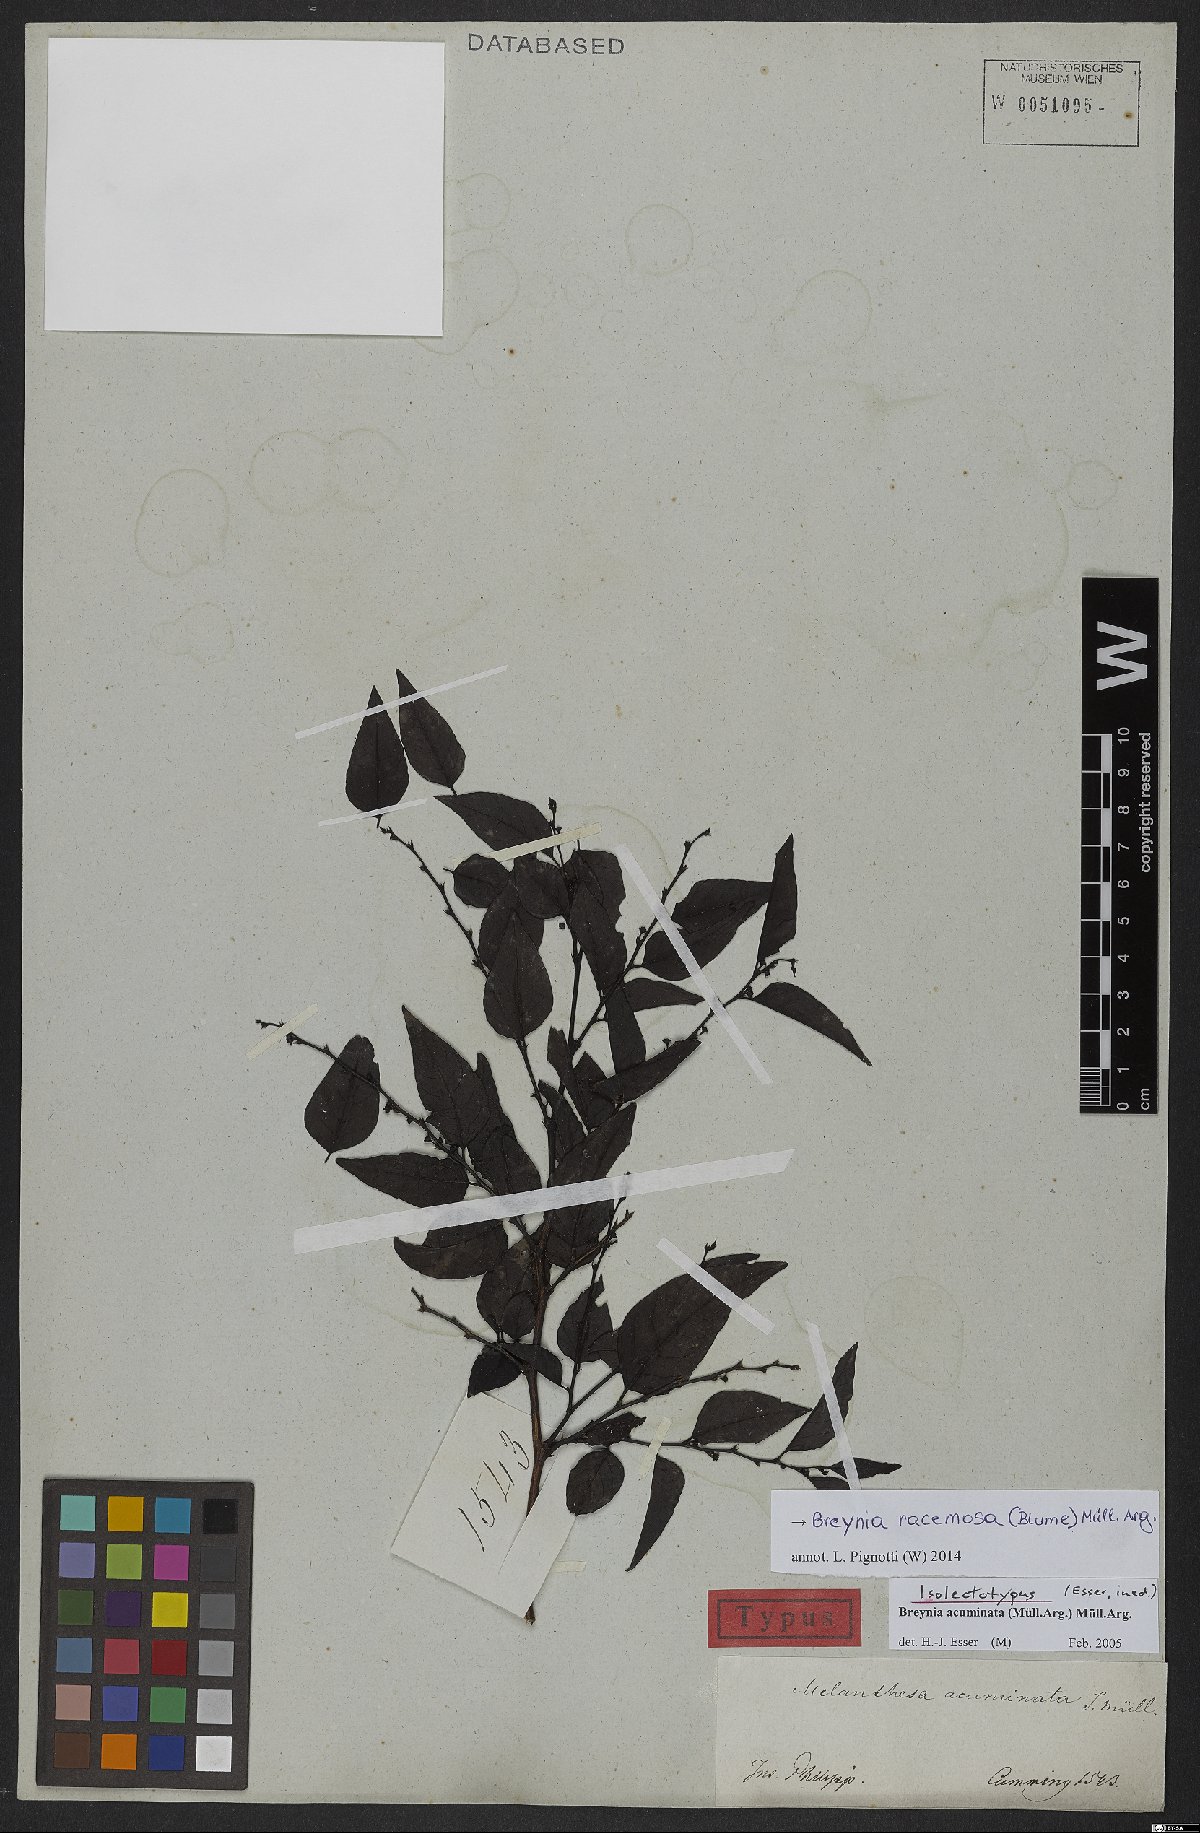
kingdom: Plantae
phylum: Tracheophyta
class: Magnoliopsida
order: Malpighiales
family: Phyllanthaceae
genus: Breynia
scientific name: Breynia racemosa
